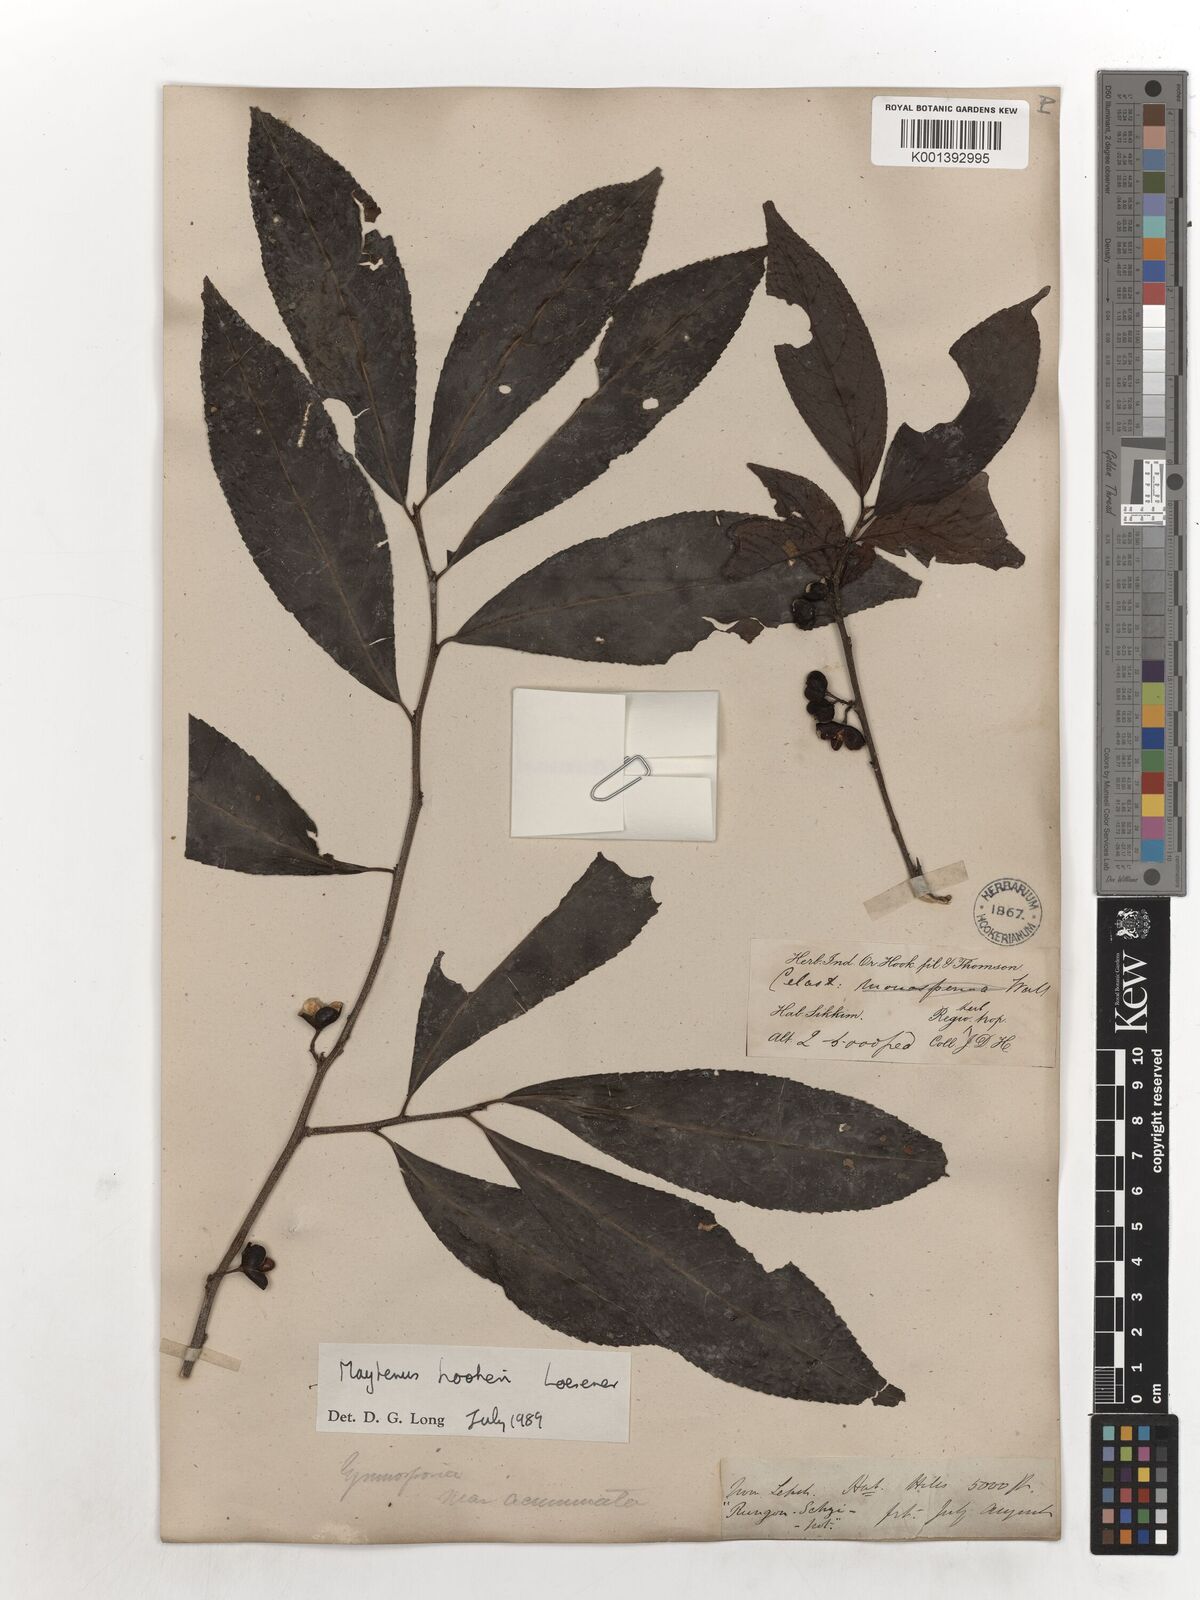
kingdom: Plantae
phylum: Tracheophyta
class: Magnoliopsida
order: Celastrales
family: Celastraceae
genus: Gymnosporia
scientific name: Gymnosporia oxyphylla
